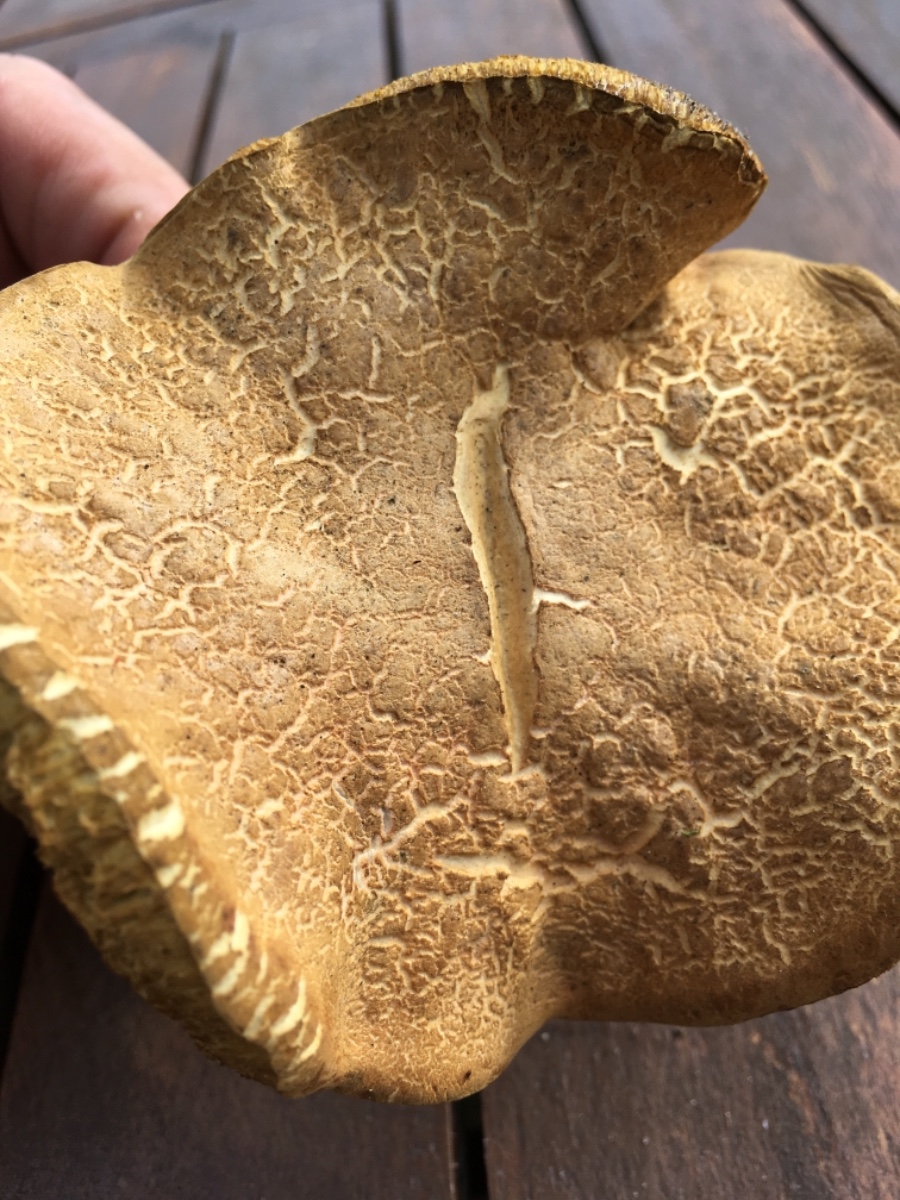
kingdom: Fungi
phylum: Basidiomycota
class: Agaricomycetes
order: Boletales
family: Boletaceae
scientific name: Boletaceae
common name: rørhatfamilien
